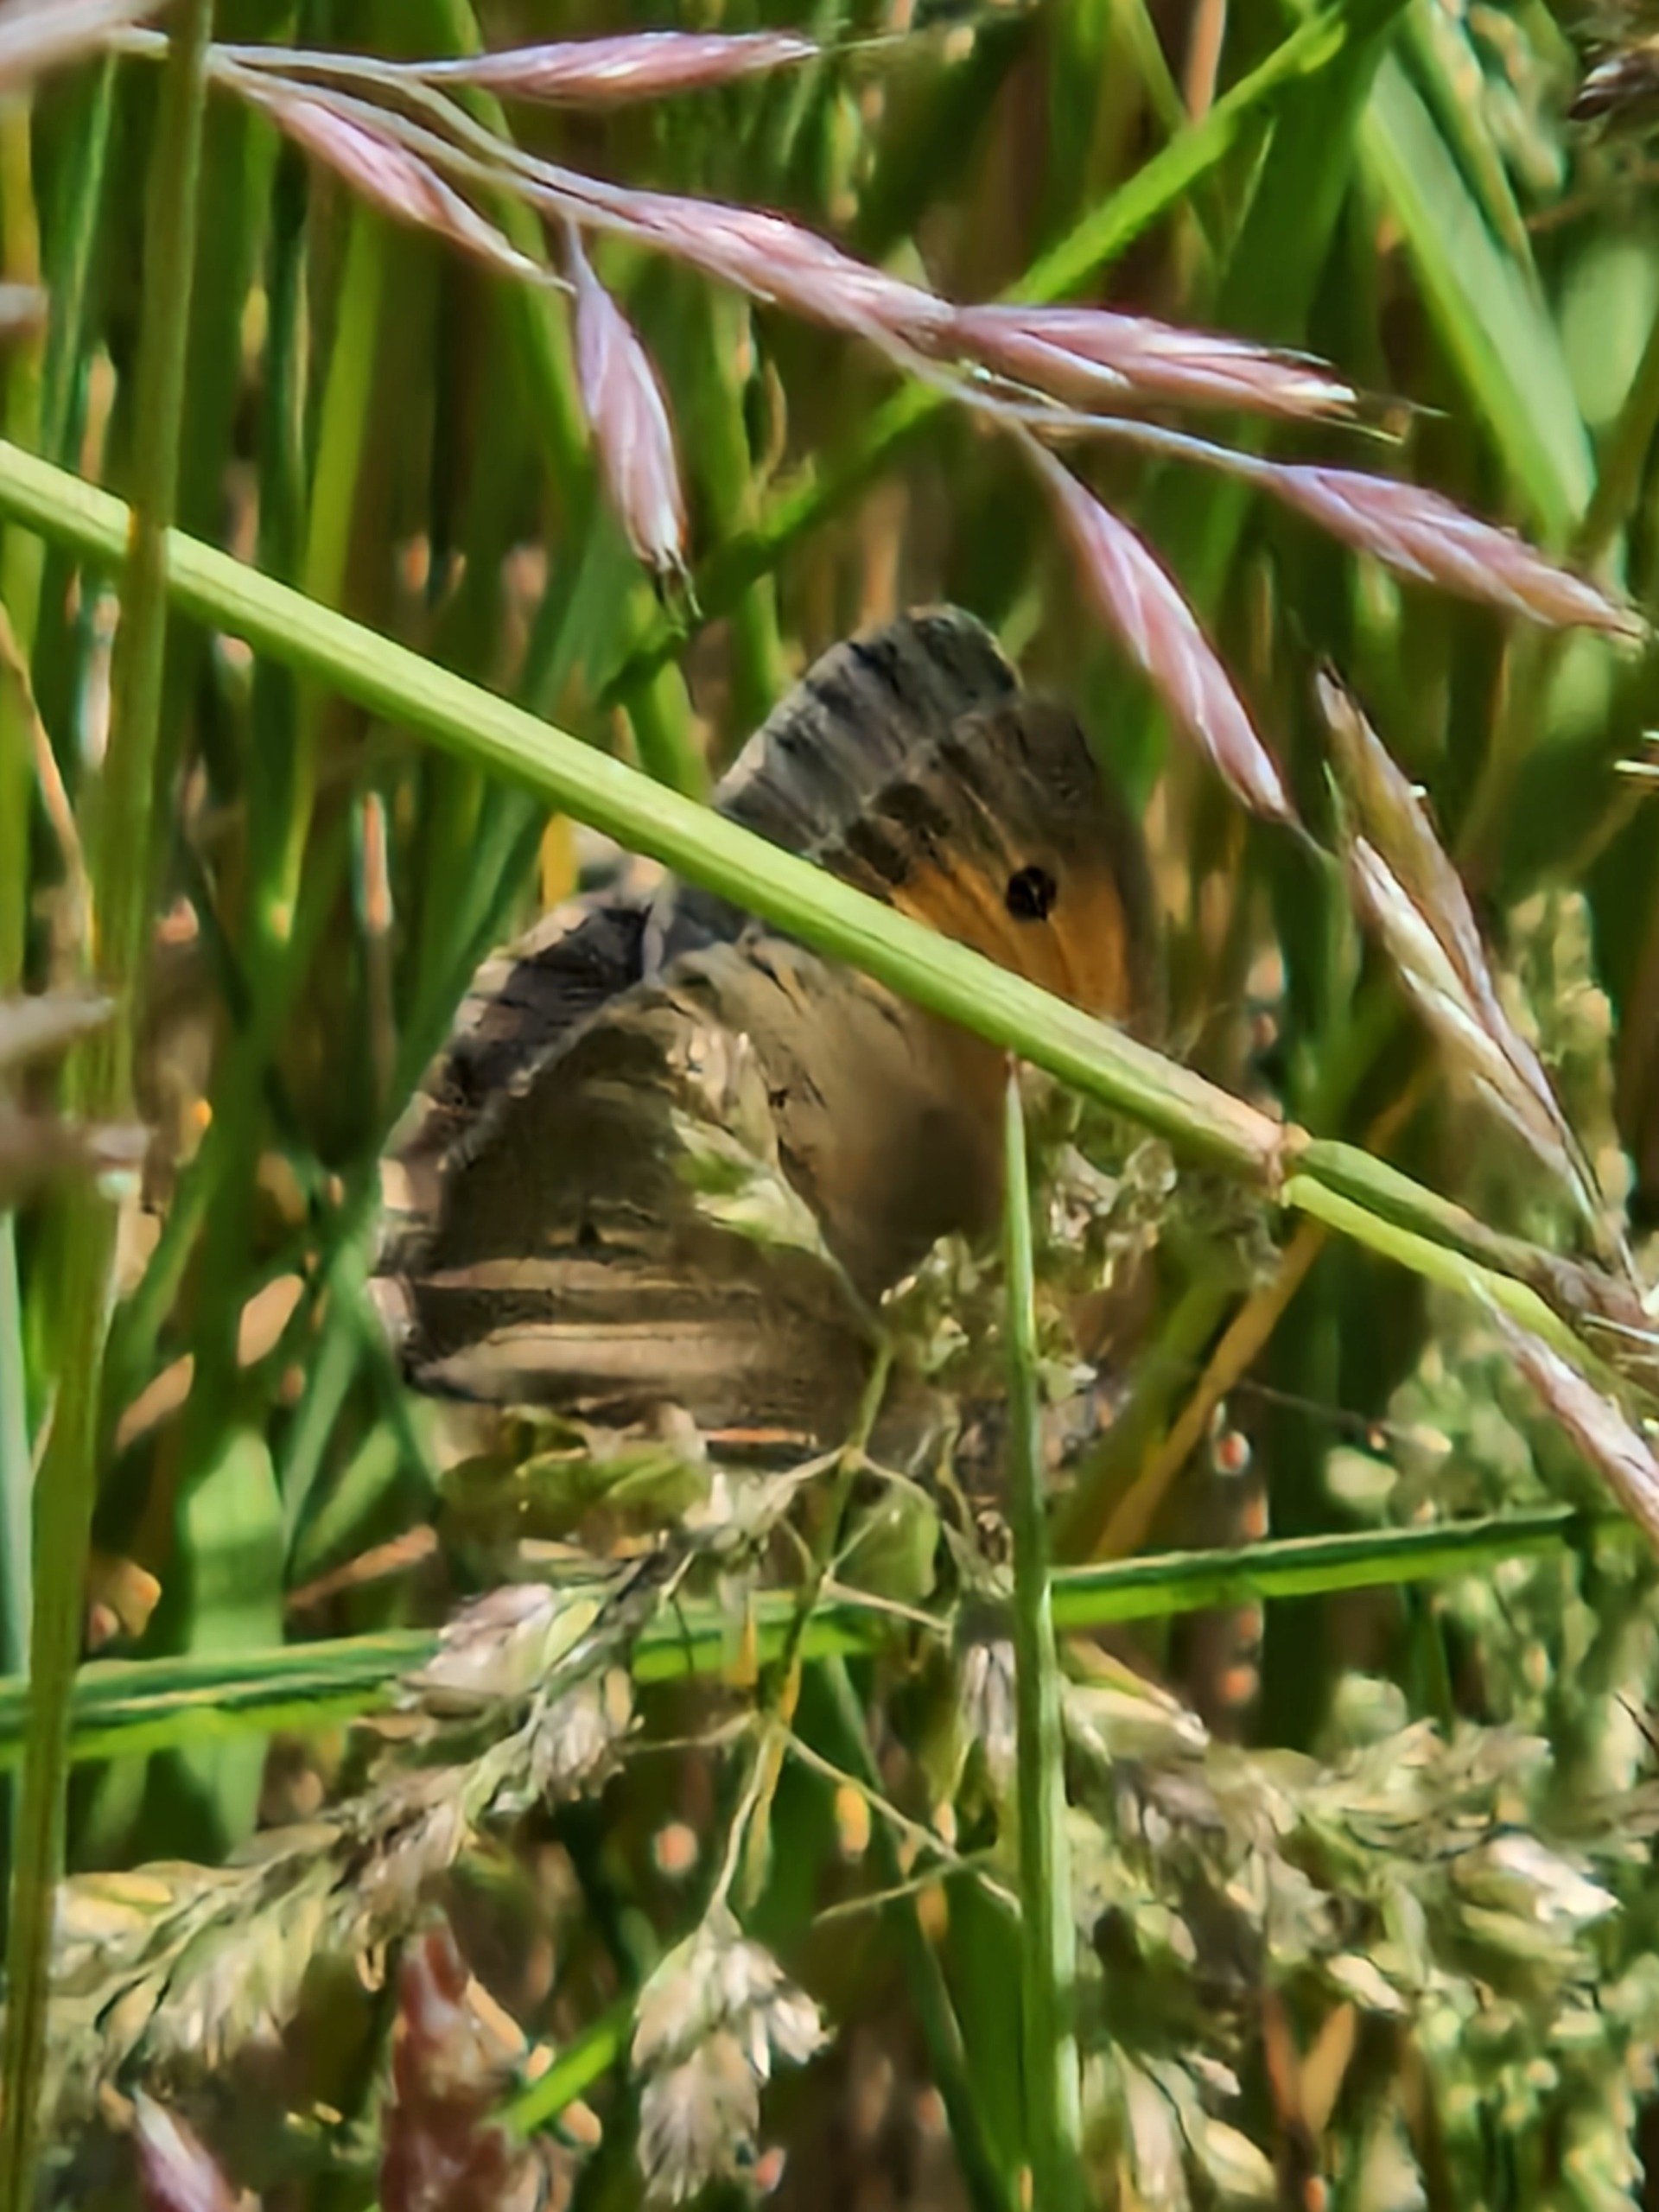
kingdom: Animalia
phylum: Arthropoda
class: Insecta
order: Lepidoptera
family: Nymphalidae
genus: Maniola
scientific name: Maniola jurtina
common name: Græsrandøje
